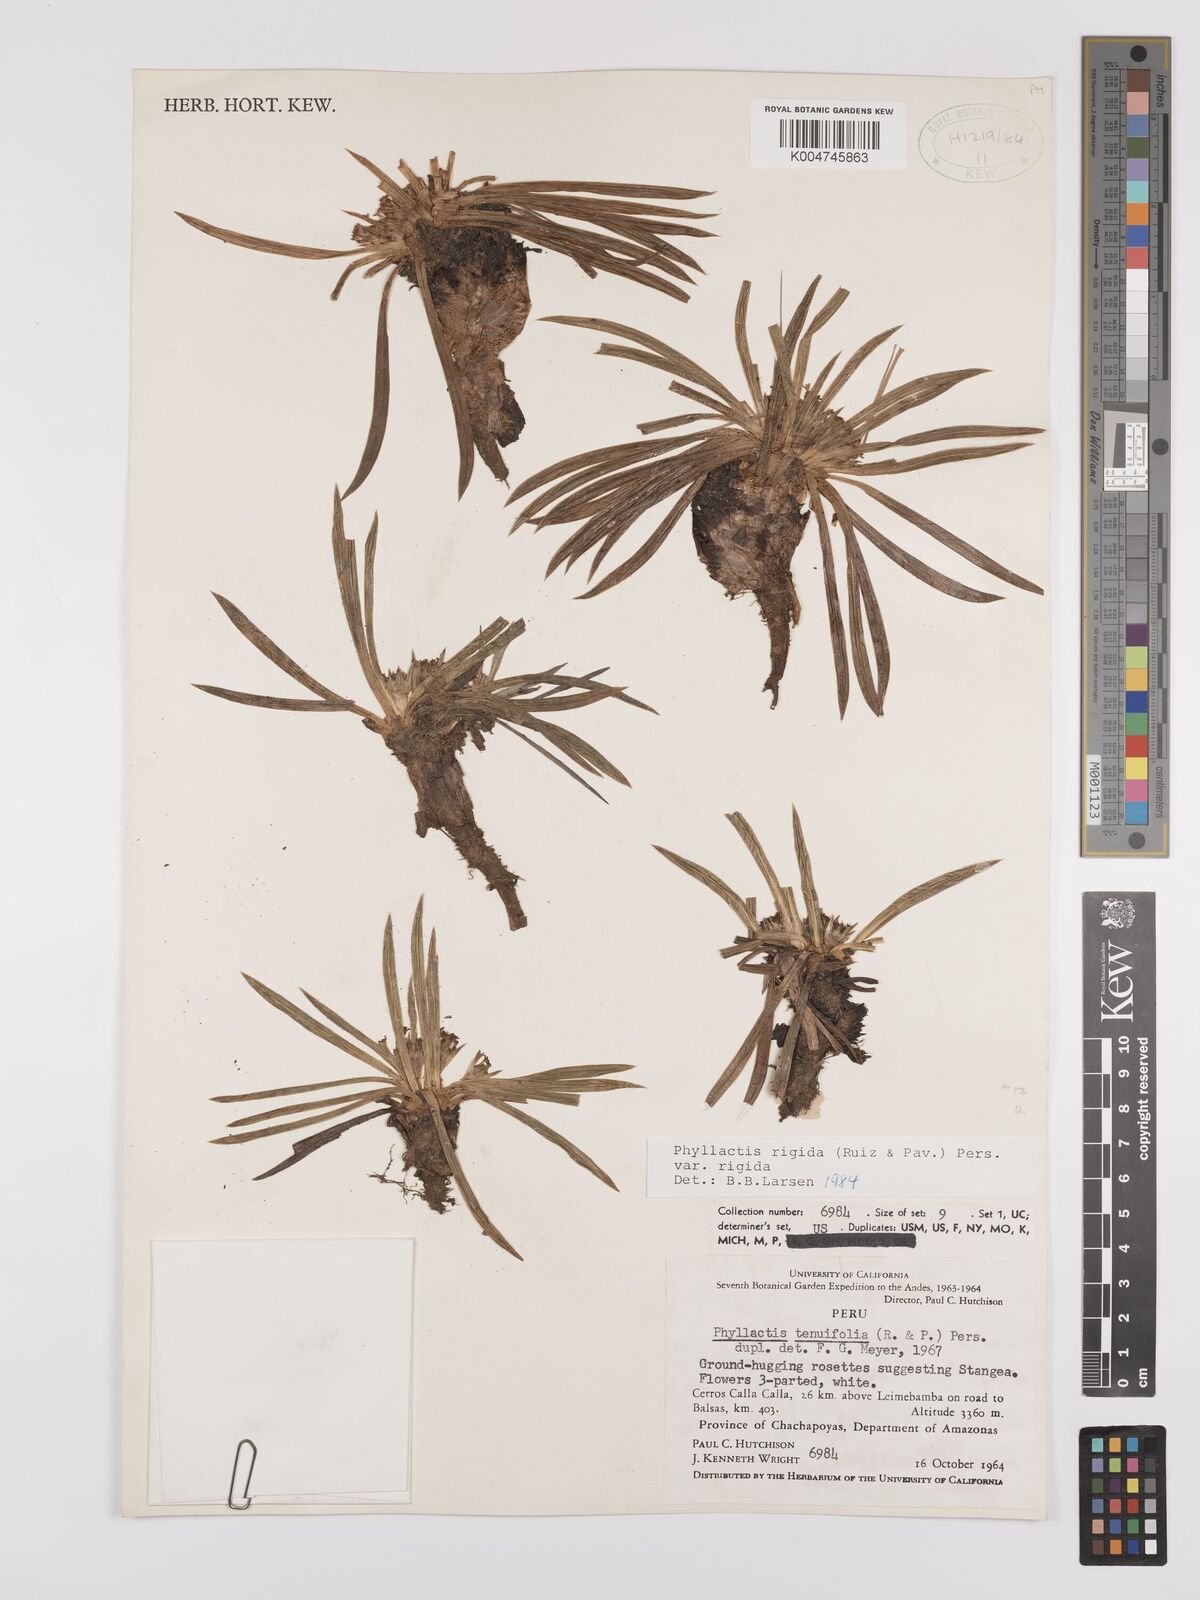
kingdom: Plantae
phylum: Tracheophyta
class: Magnoliopsida
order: Dipsacales
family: Caprifoliaceae
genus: Valeriana
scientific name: Valeriana rigida
